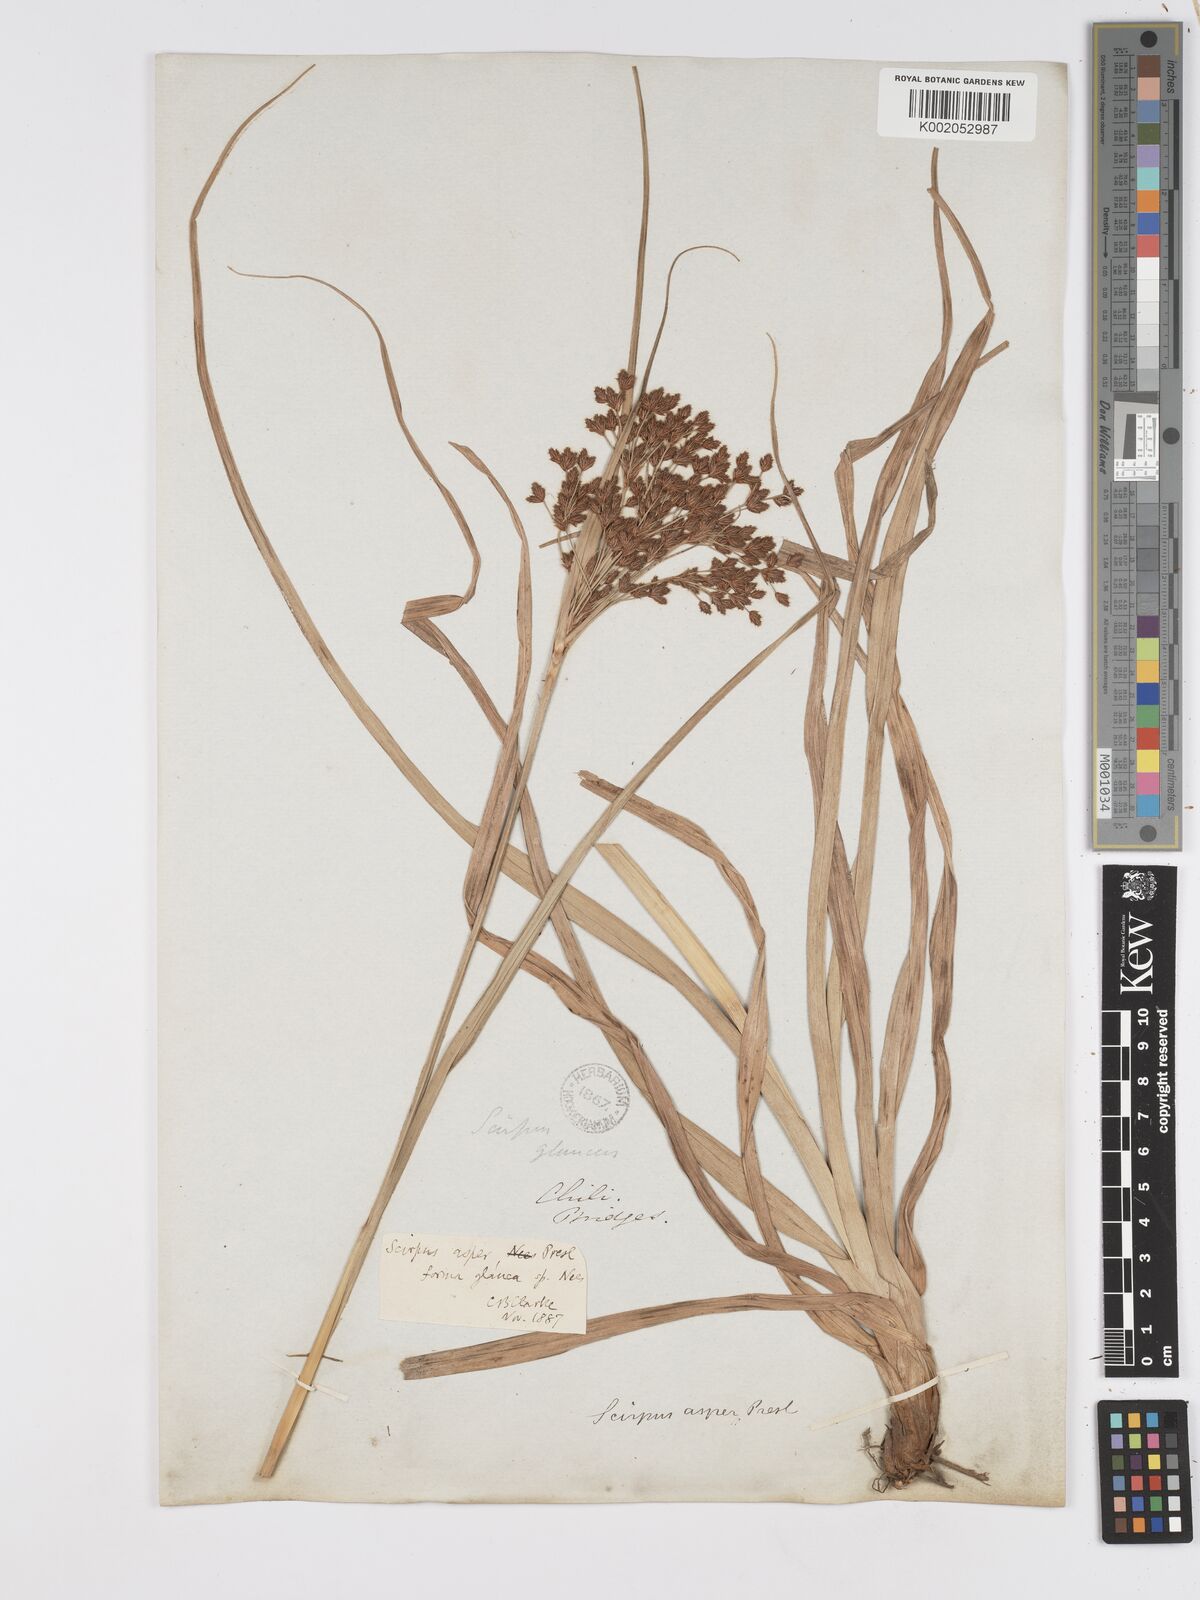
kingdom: Plantae
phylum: Tracheophyta
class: Liliopsida
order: Poales
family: Cyperaceae
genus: Rhodoscirpus
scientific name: Rhodoscirpus asper
